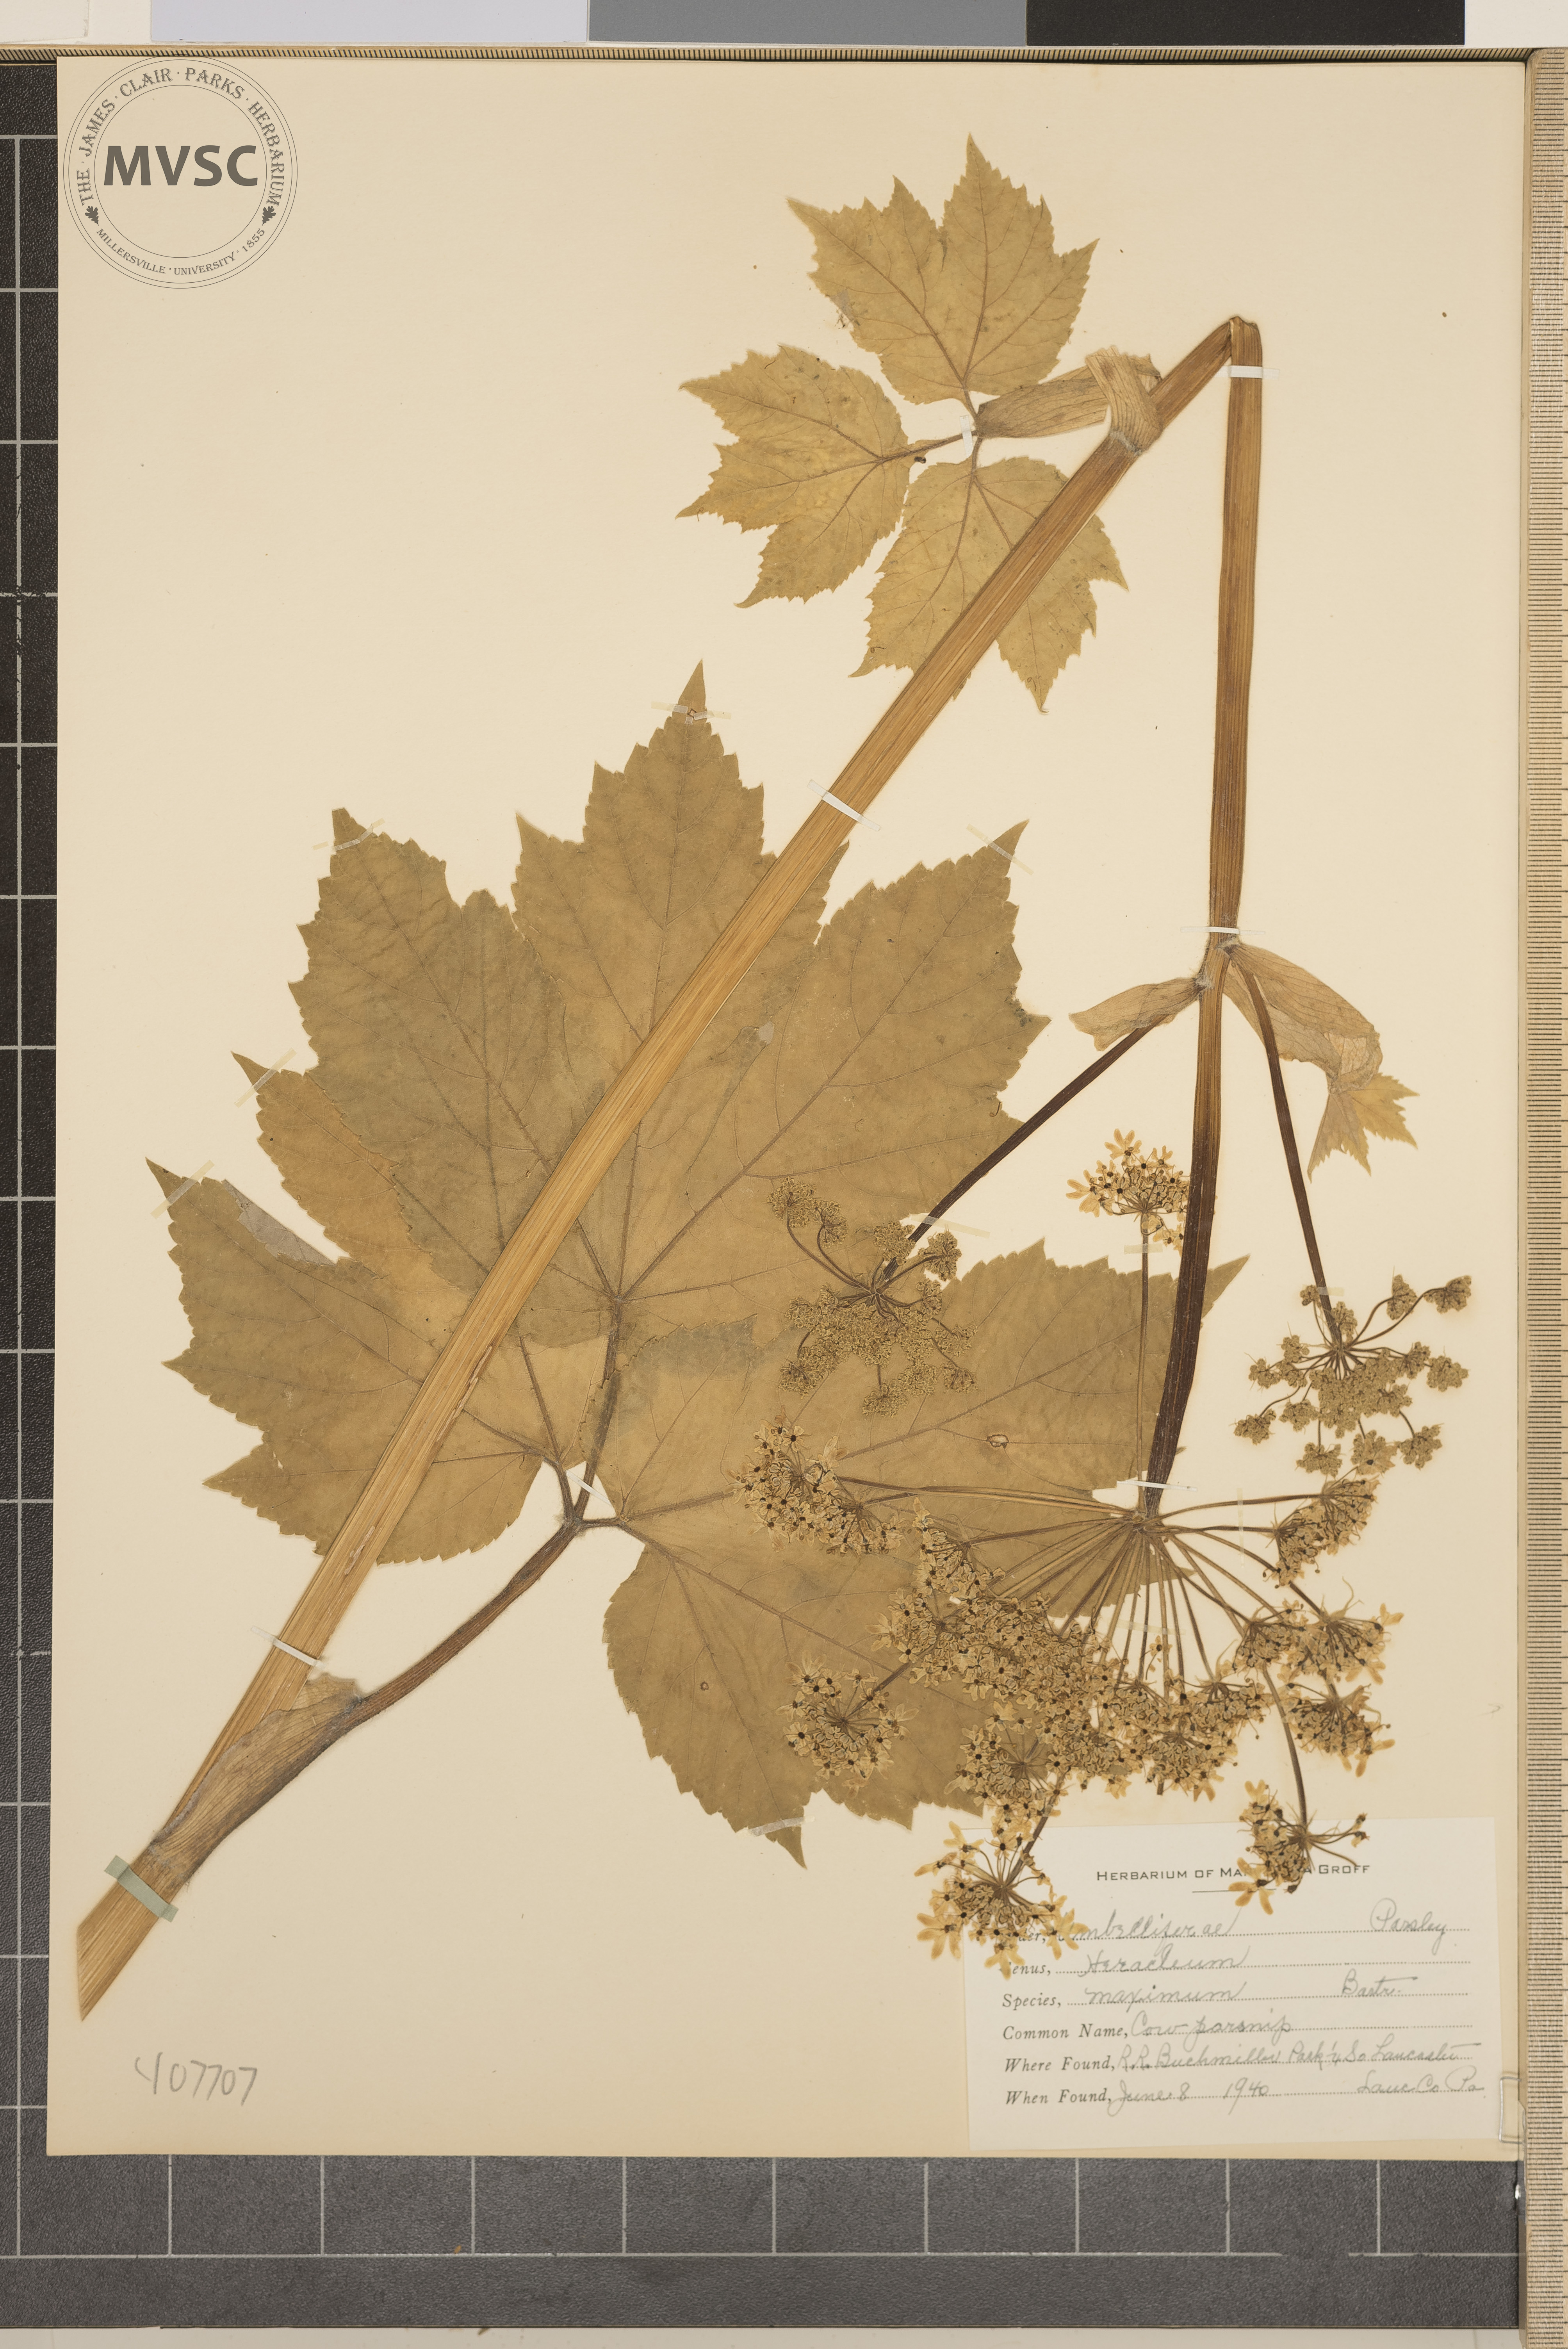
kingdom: Plantae
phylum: Tracheophyta
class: Magnoliopsida
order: Apiales
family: Apiaceae
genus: Heracleum
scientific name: Heracleum maximum
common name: Cow parsnip
